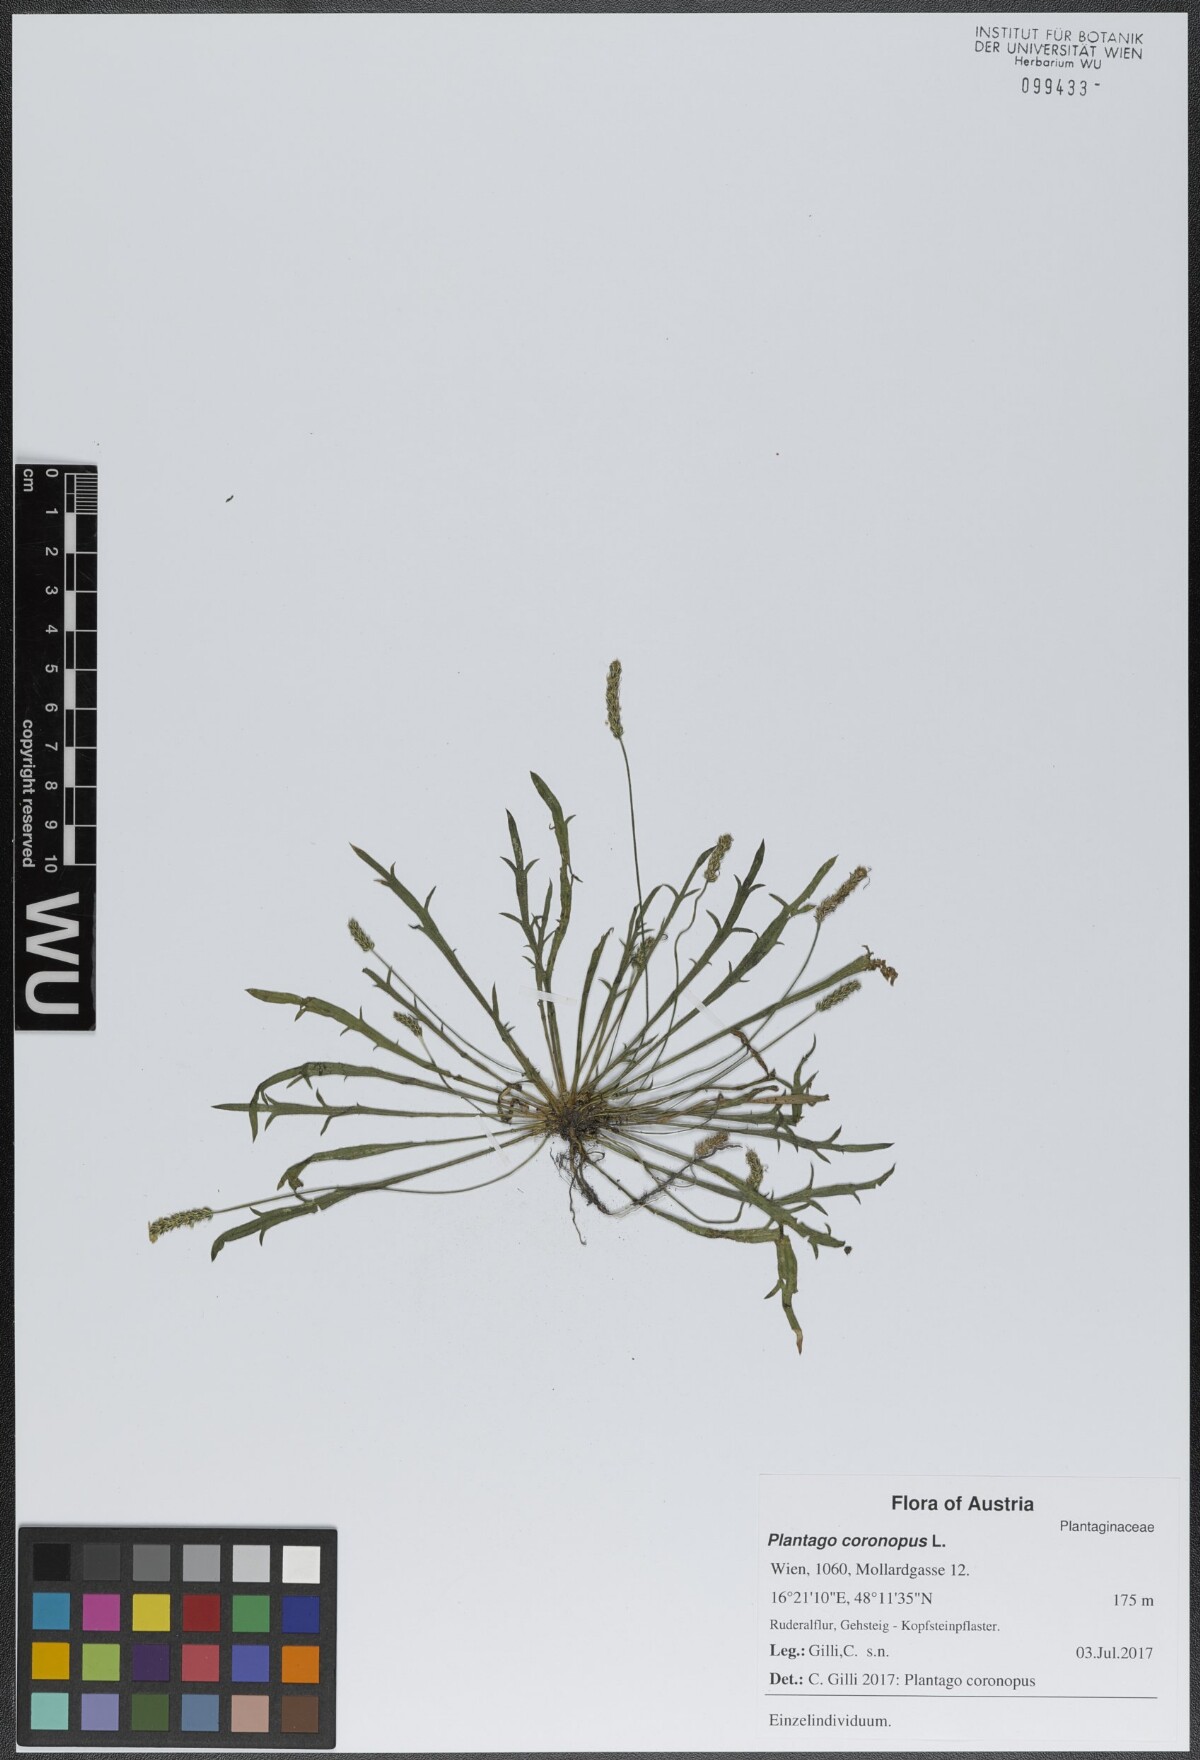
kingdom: Plantae
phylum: Tracheophyta
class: Magnoliopsida
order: Lamiales
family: Plantaginaceae
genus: Plantago
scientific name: Plantago coronopus
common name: Buck's-horn plantain
